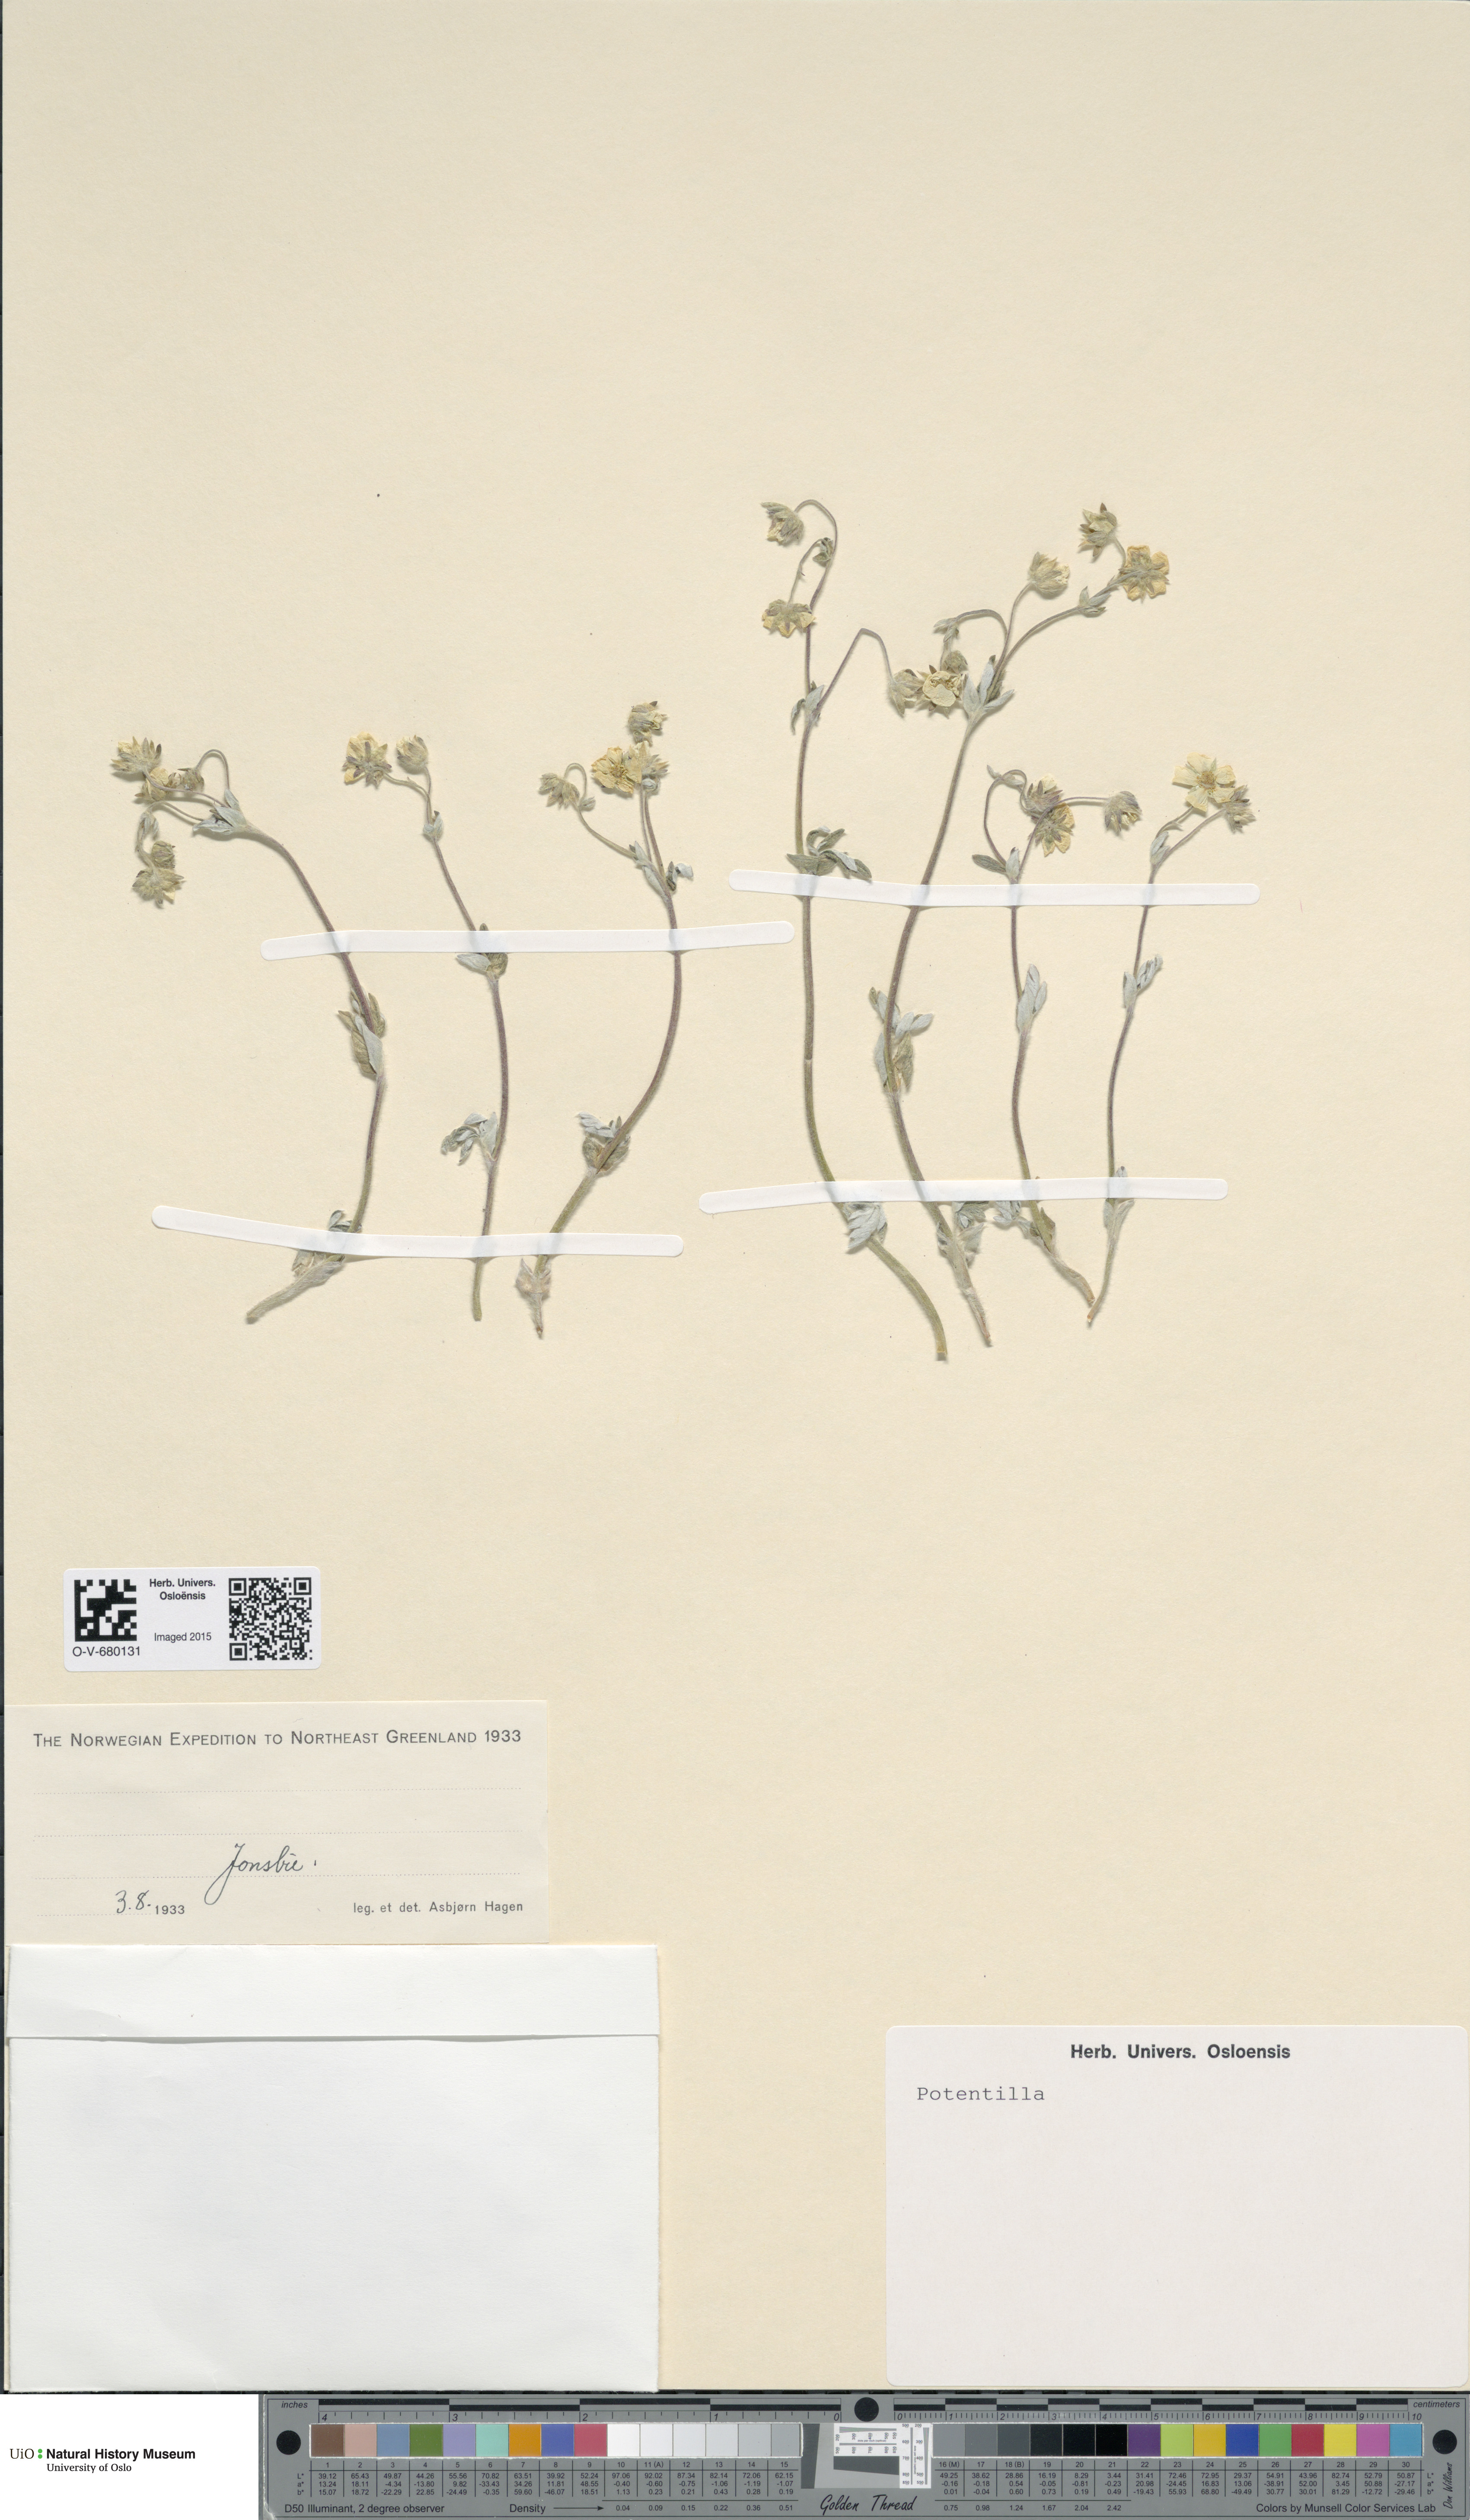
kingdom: Plantae
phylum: Tracheophyta
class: Magnoliopsida
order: Rosales
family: Rosaceae
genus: Potentilla
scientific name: Potentilla
